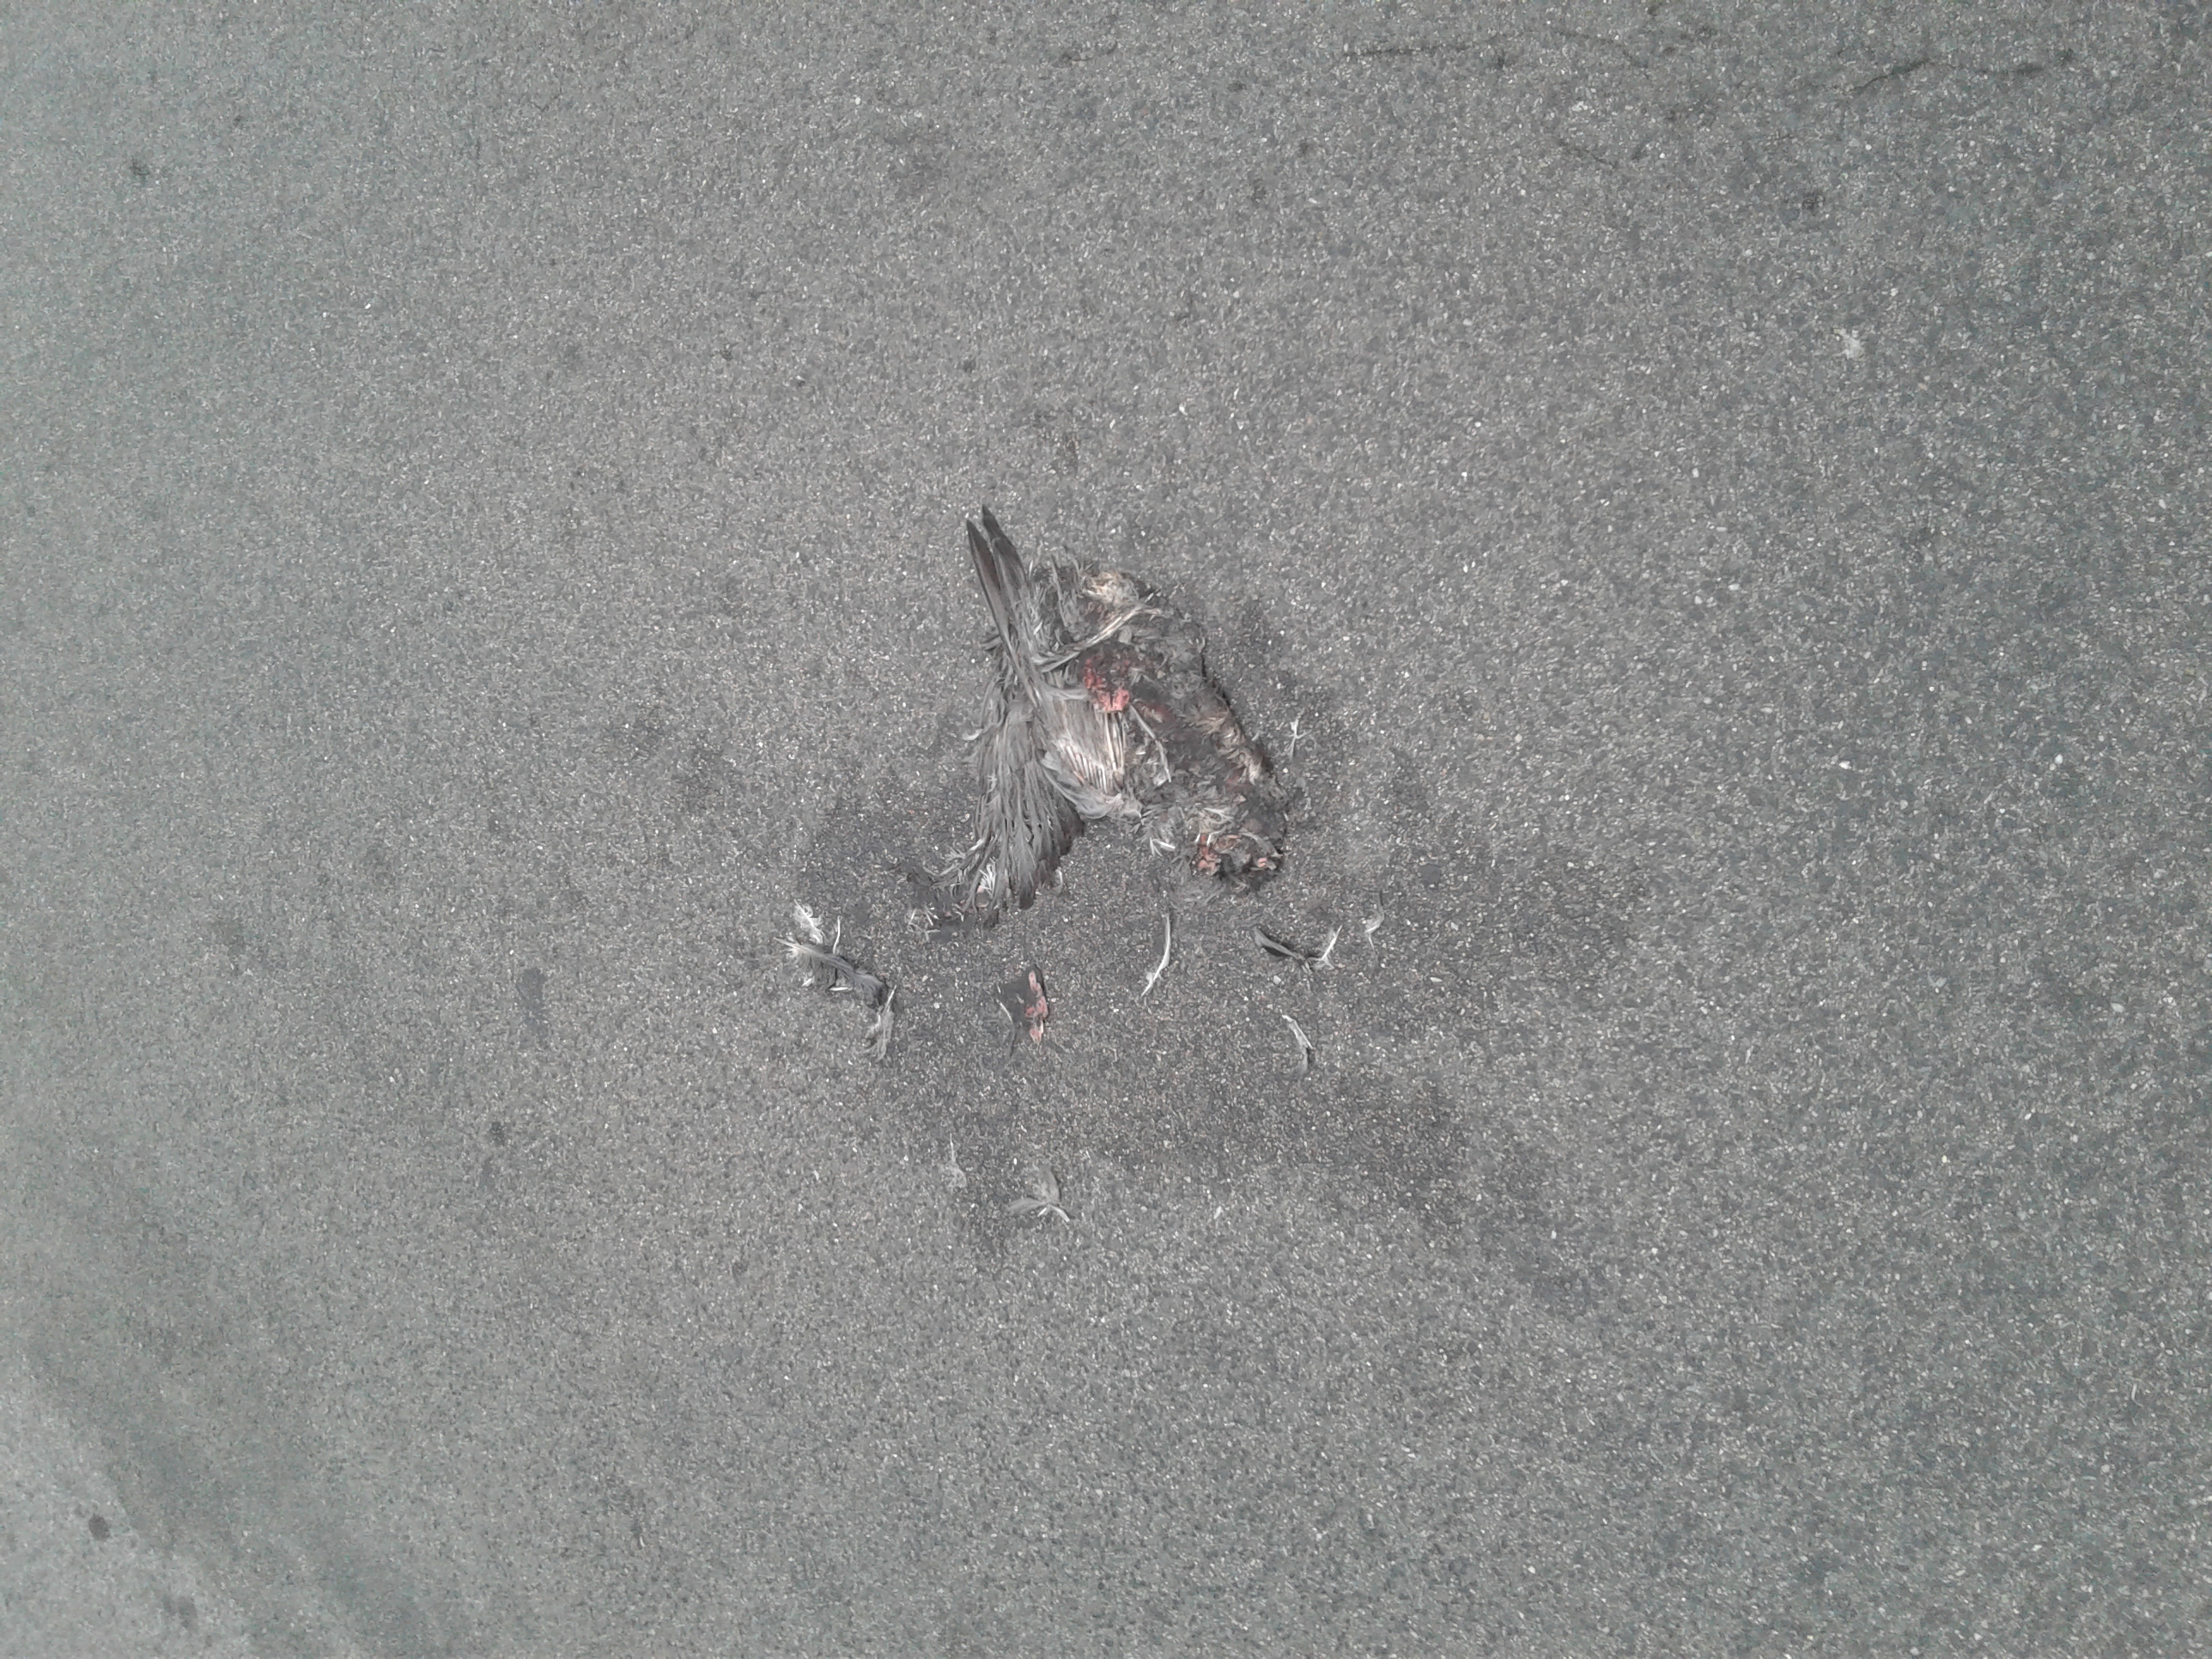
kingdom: Animalia
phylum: Chordata
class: Aves
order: Columbiformes
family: Columbidae
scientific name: Columbidae
